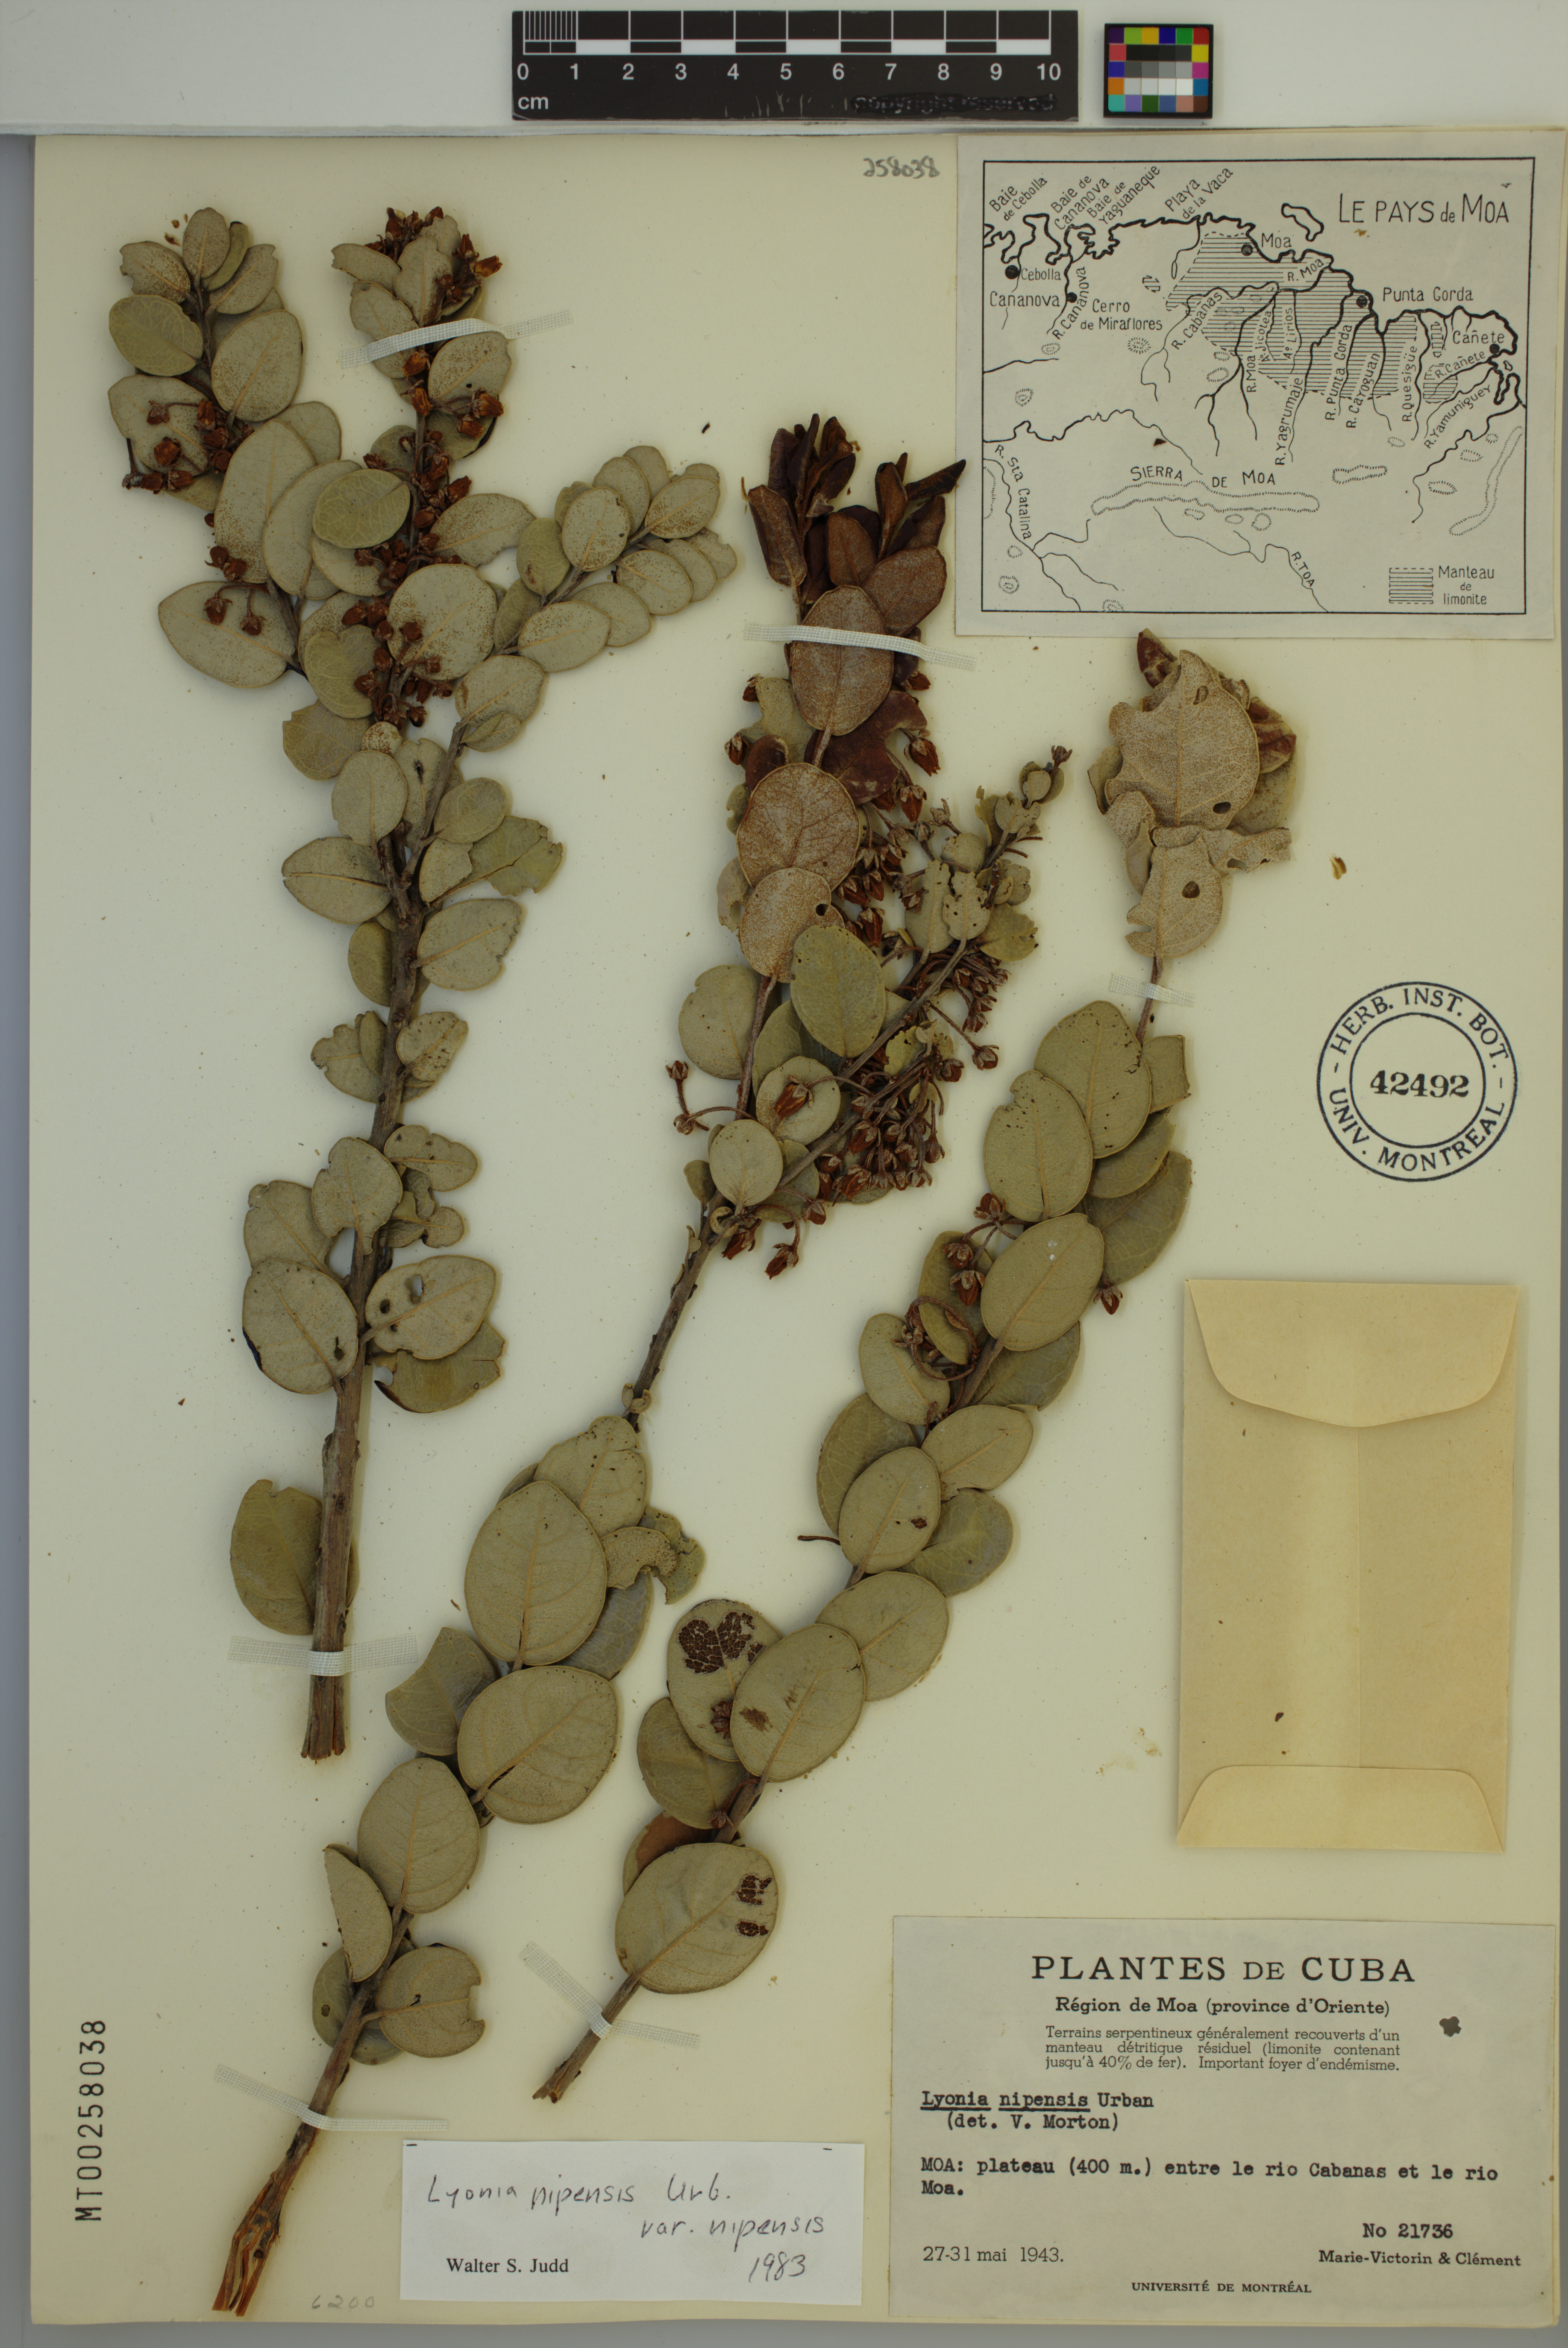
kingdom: Plantae
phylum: Tracheophyta
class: Magnoliopsida
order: Ericales
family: Ericaceae
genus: Lyonia
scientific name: Lyonia nipensis
